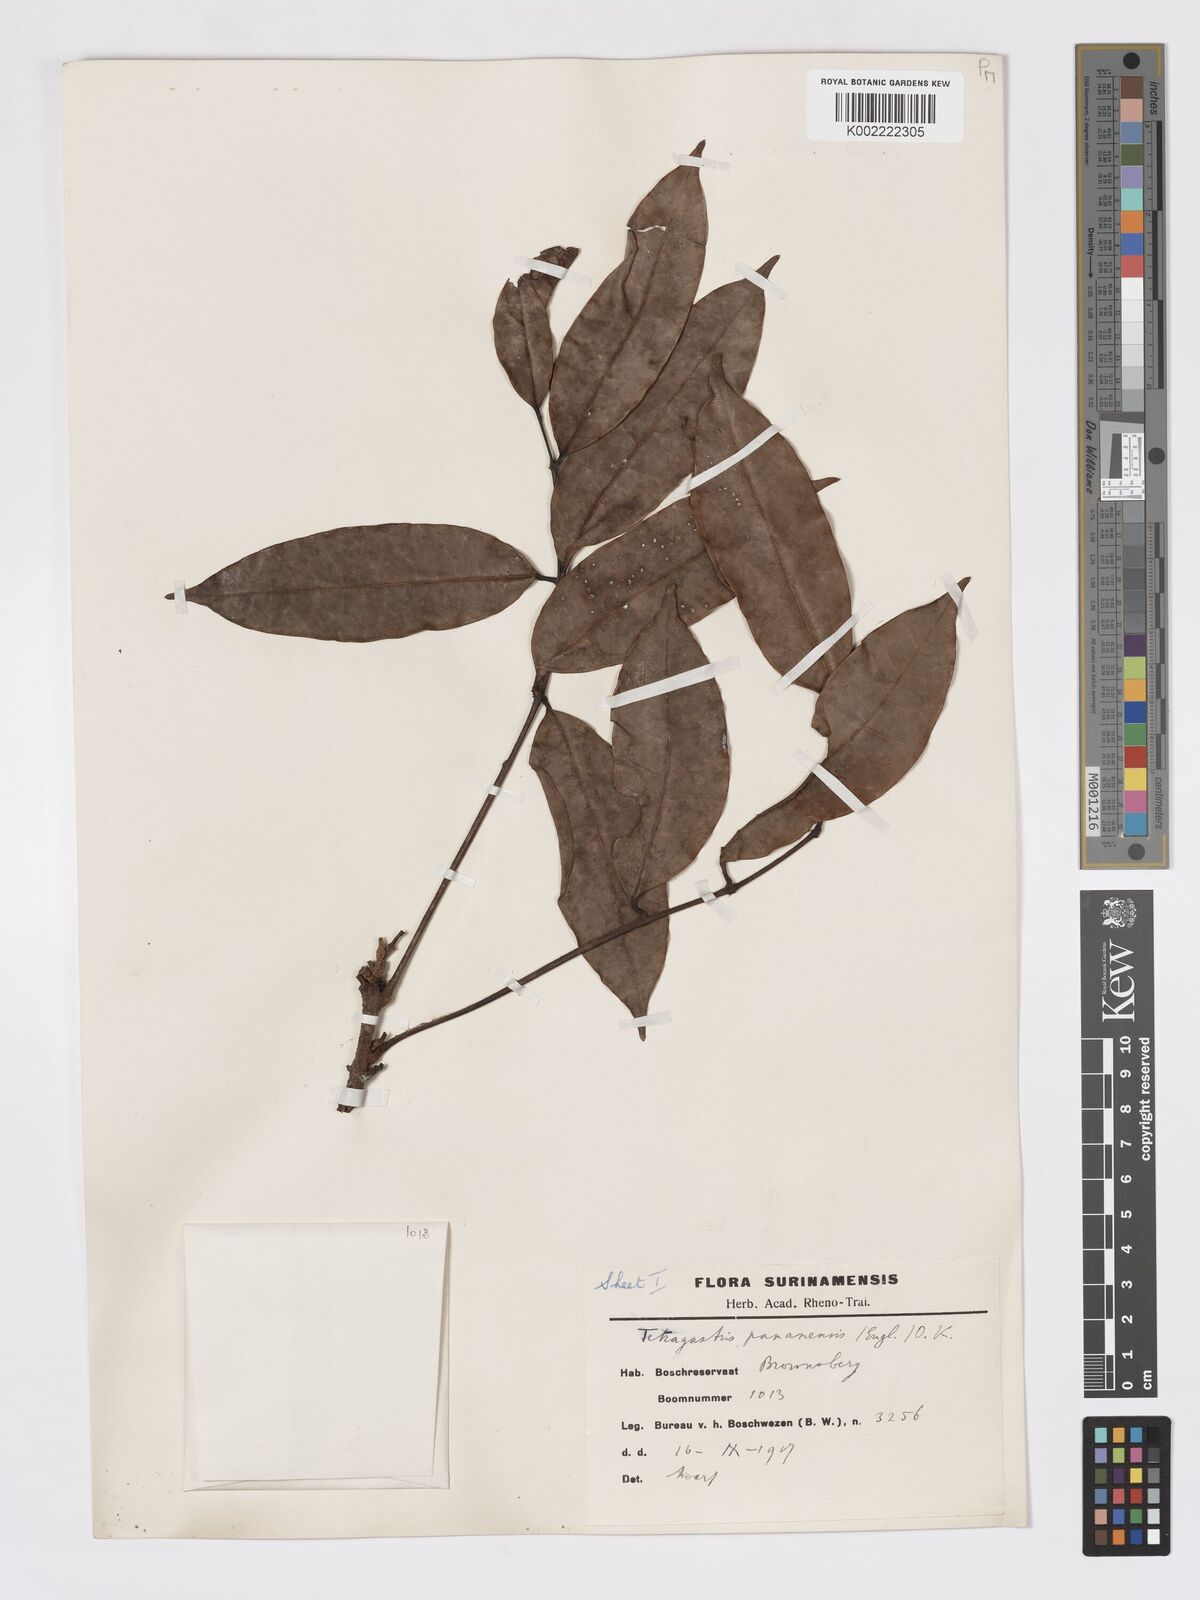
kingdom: Plantae
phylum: Tracheophyta
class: Magnoliopsida
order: Sapindales
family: Burseraceae
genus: Tetragastris
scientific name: Tetragastris panamensis
